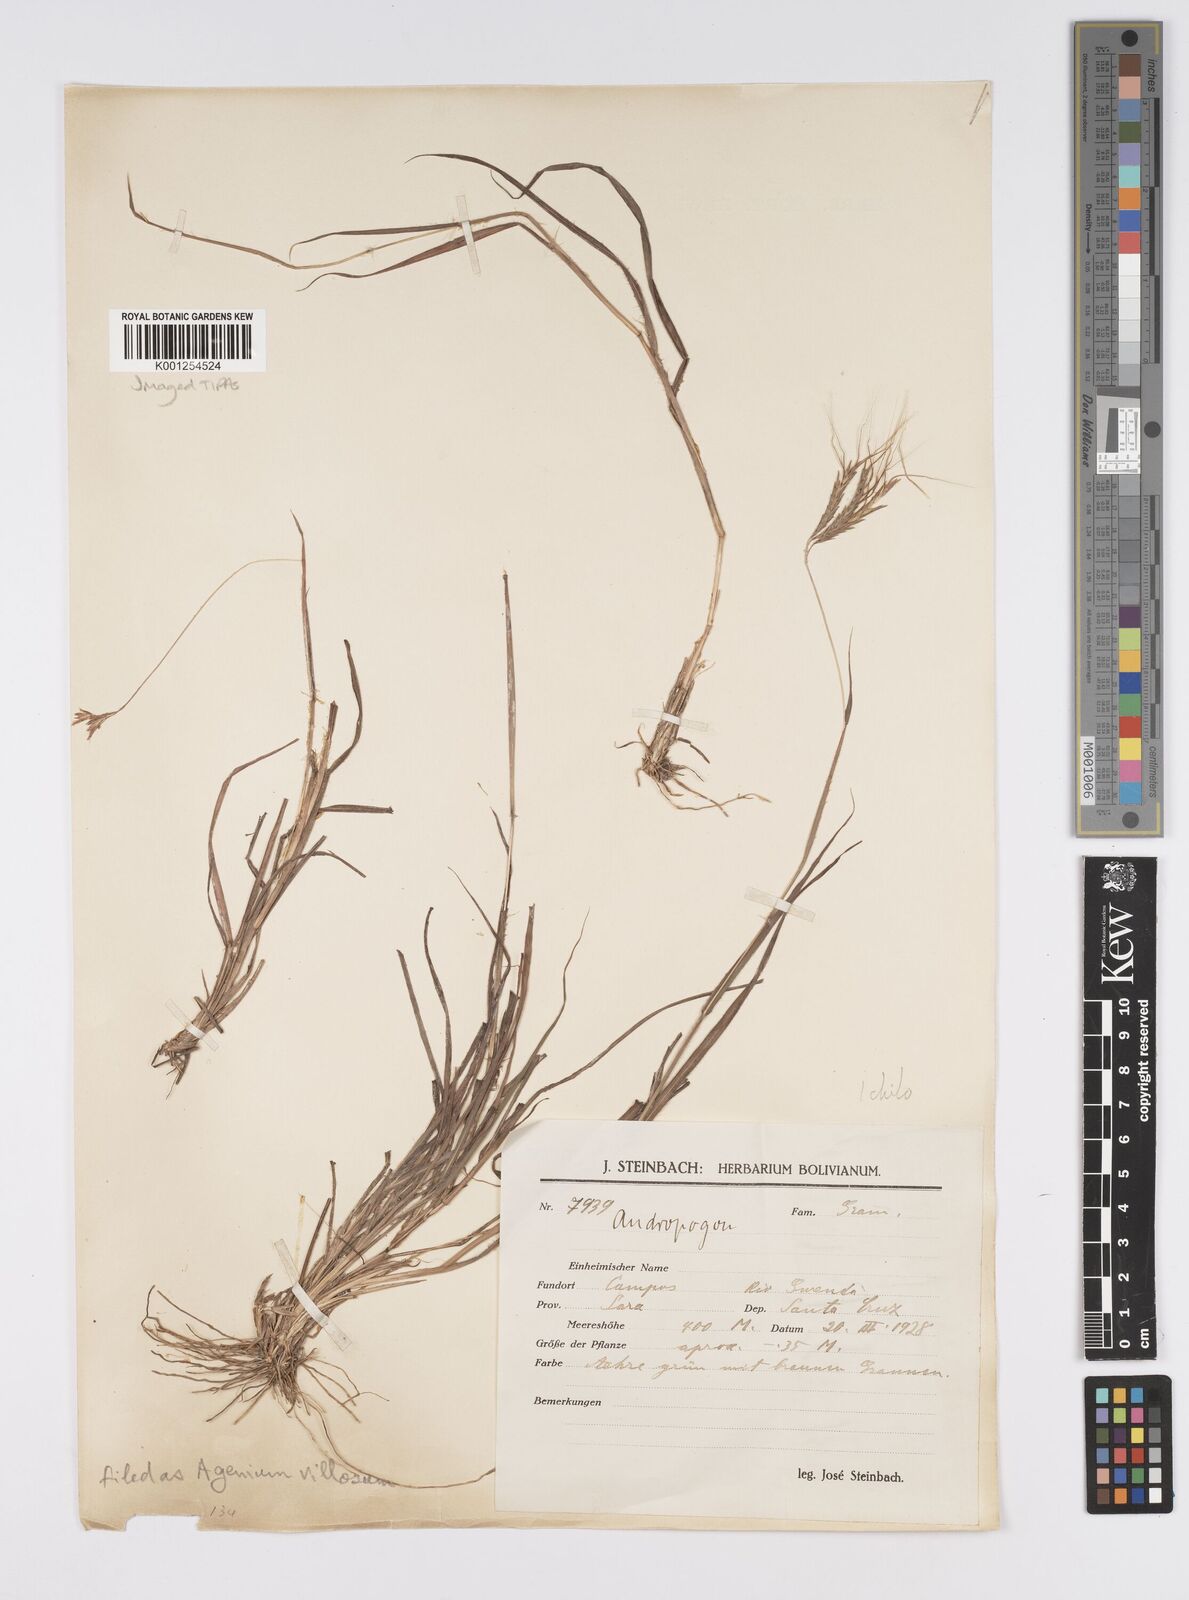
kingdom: Plantae
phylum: Tracheophyta
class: Liliopsida
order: Poales
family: Poaceae
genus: Agenium
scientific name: Agenium villosum
